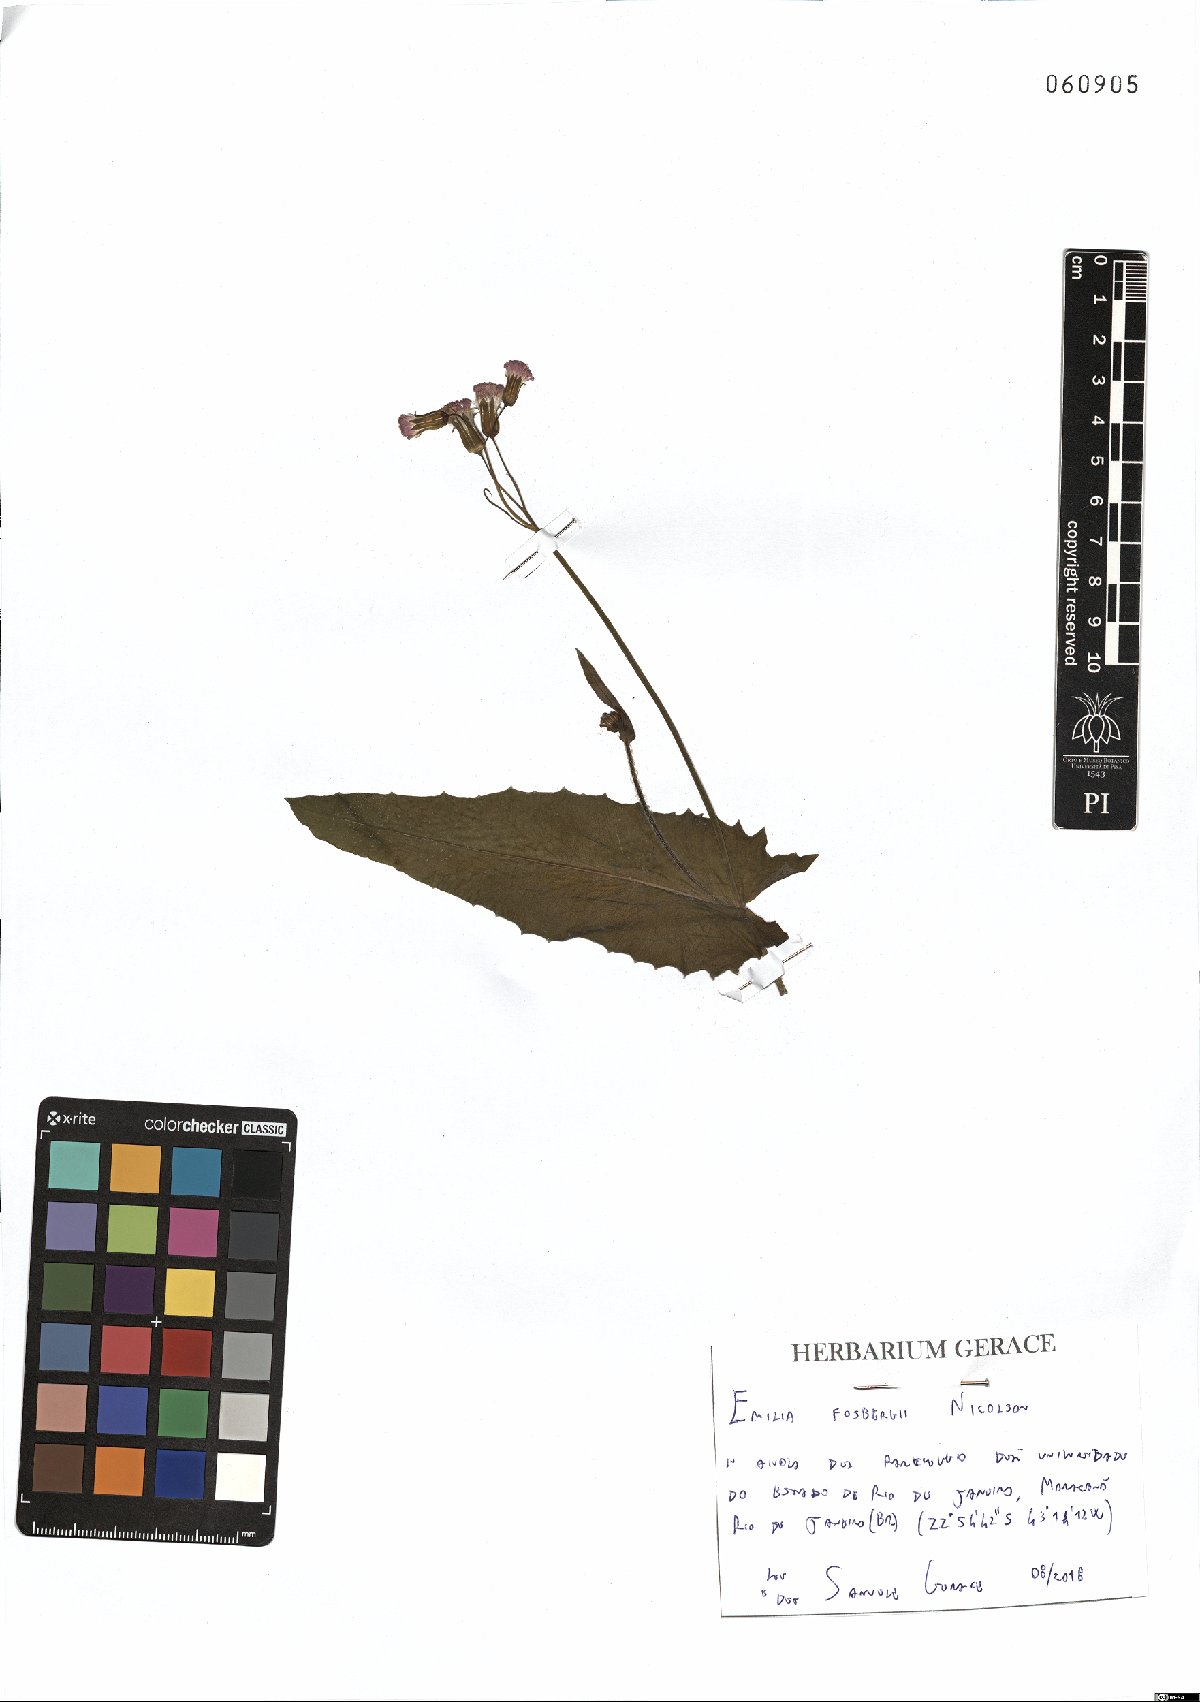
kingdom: Plantae
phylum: Tracheophyta
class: Magnoliopsida
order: Asterales
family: Asteraceae
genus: Emilia
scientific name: Emilia fosbergii
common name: Florida tasselflower
